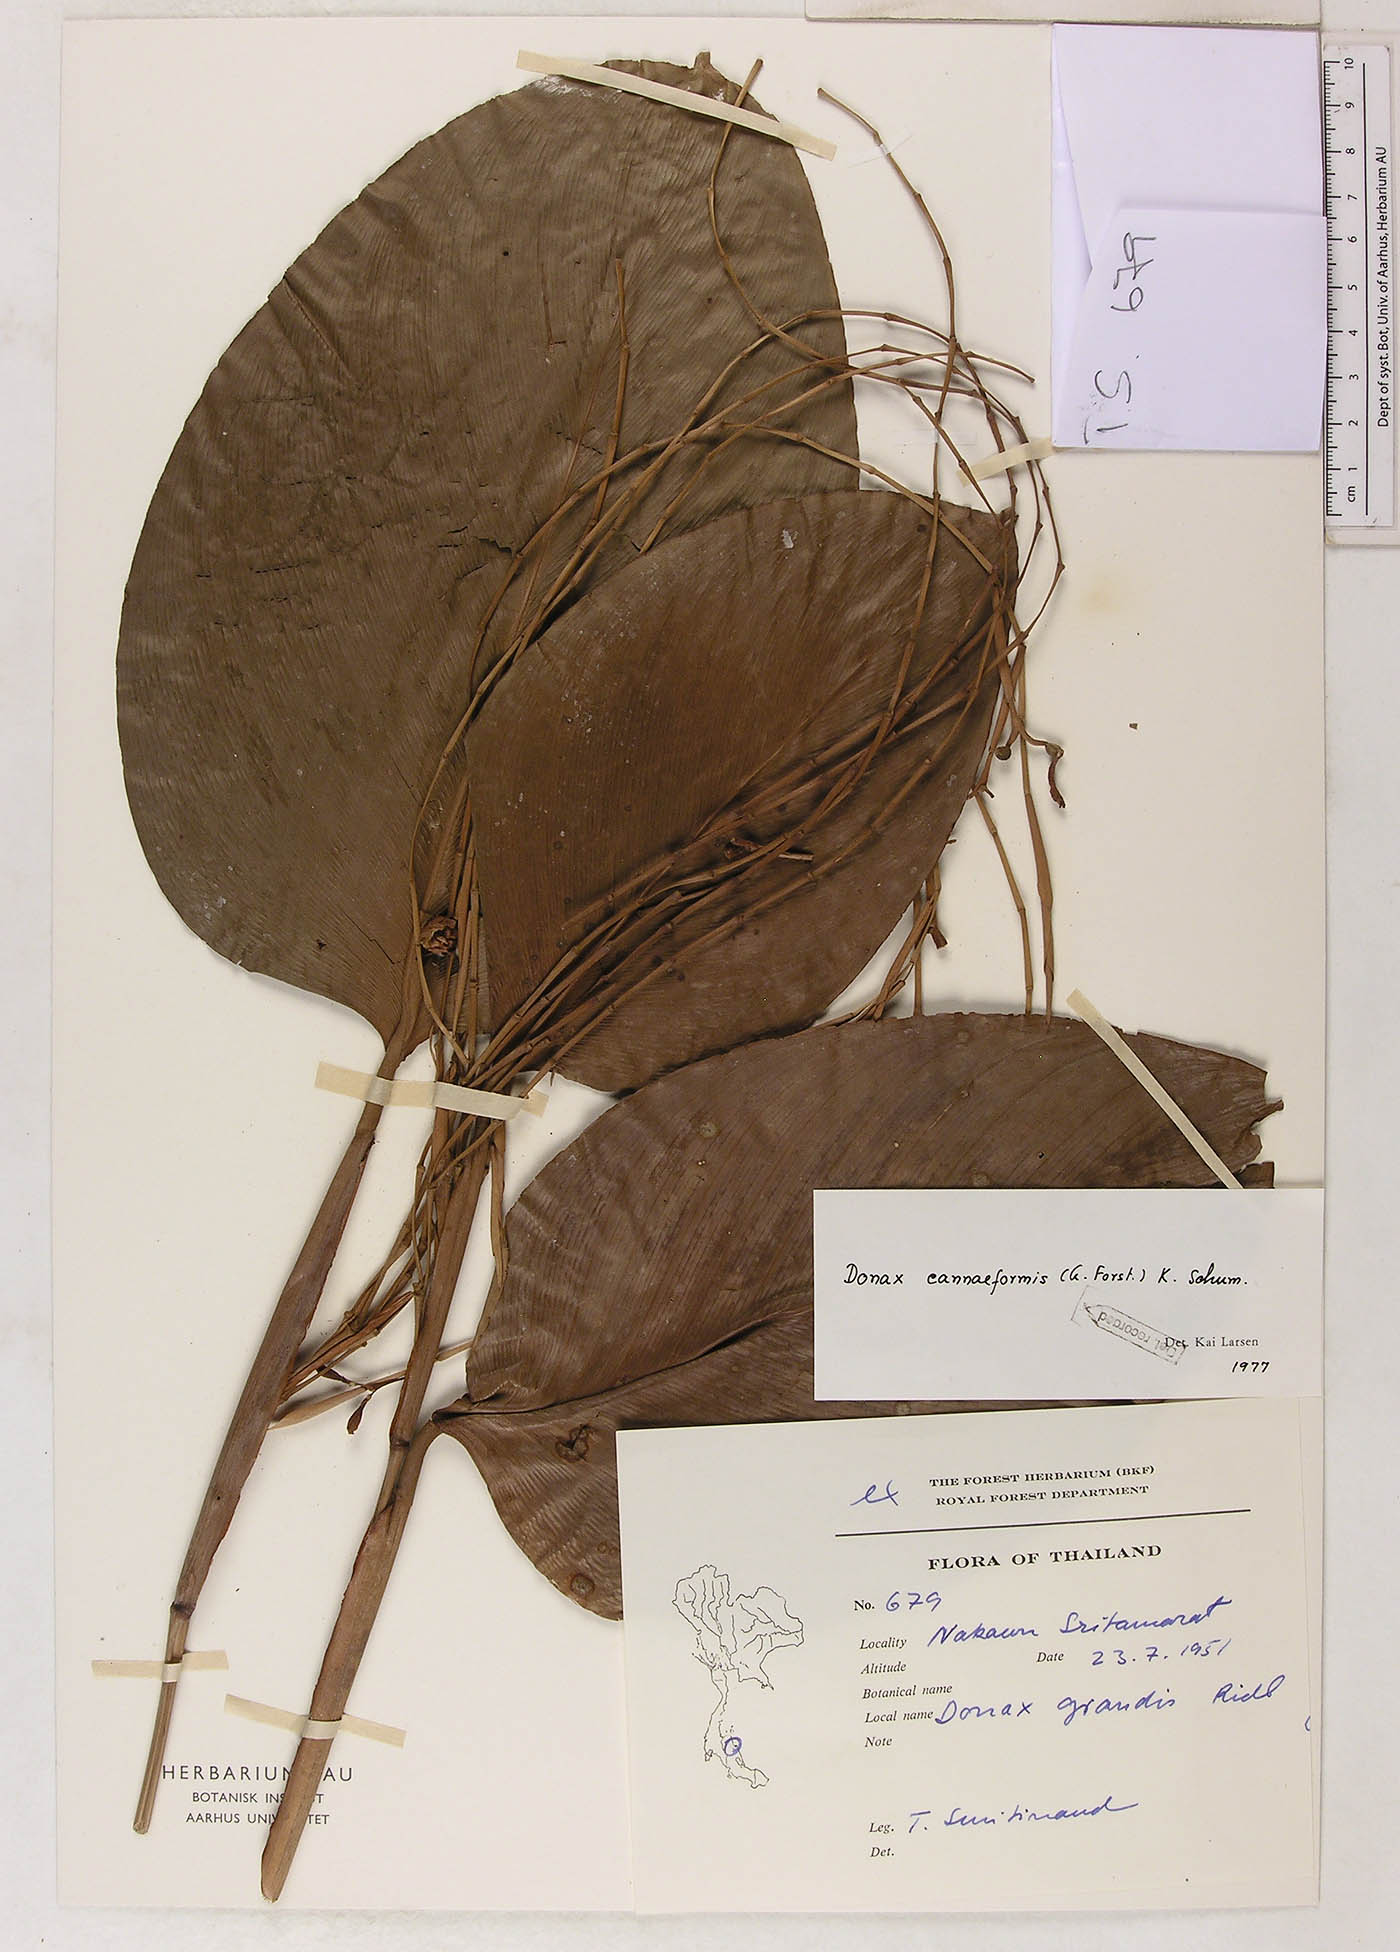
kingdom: Plantae
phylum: Tracheophyta
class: Liliopsida
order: Zingiberales
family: Marantaceae
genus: Donax
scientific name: Donax canniformis
